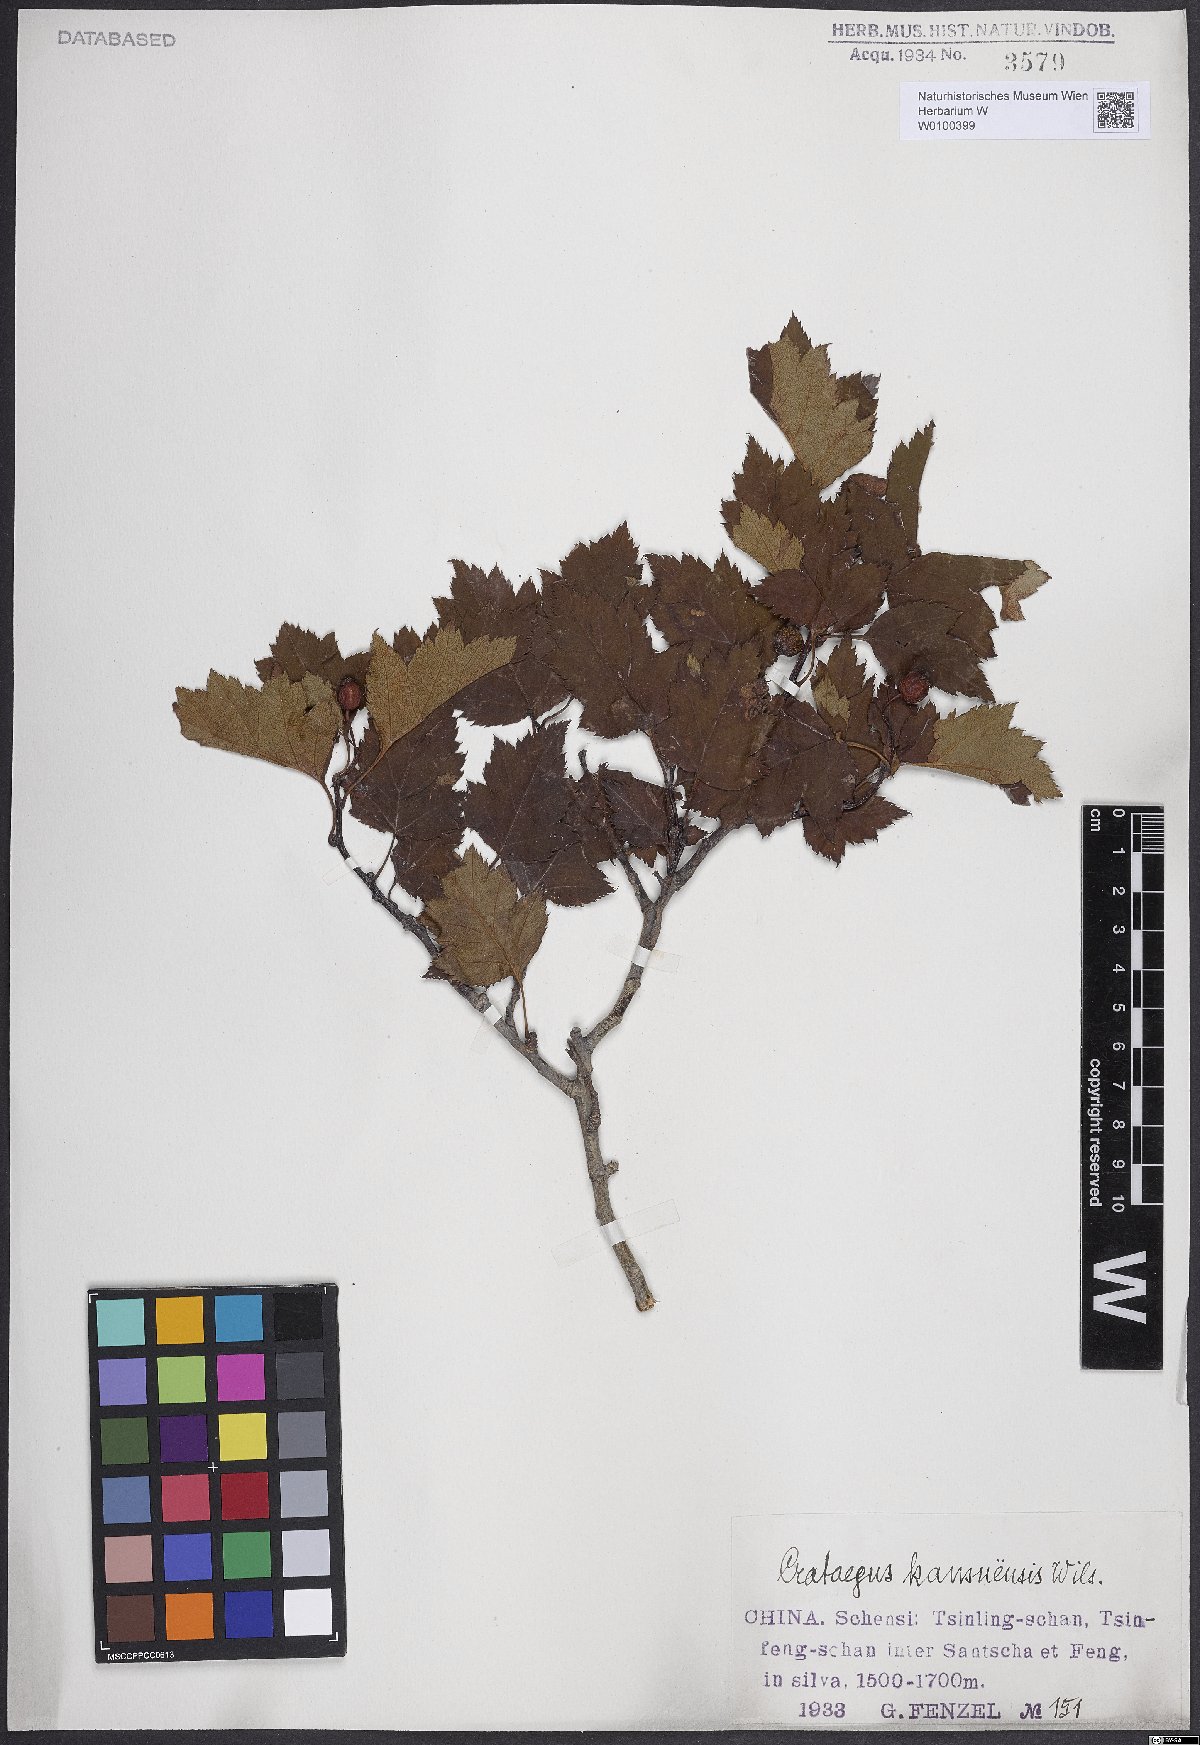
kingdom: Plantae
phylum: Tracheophyta
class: Magnoliopsida
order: Rosales
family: Rosaceae
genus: Crataegus
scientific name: Crataegus kansuensis
